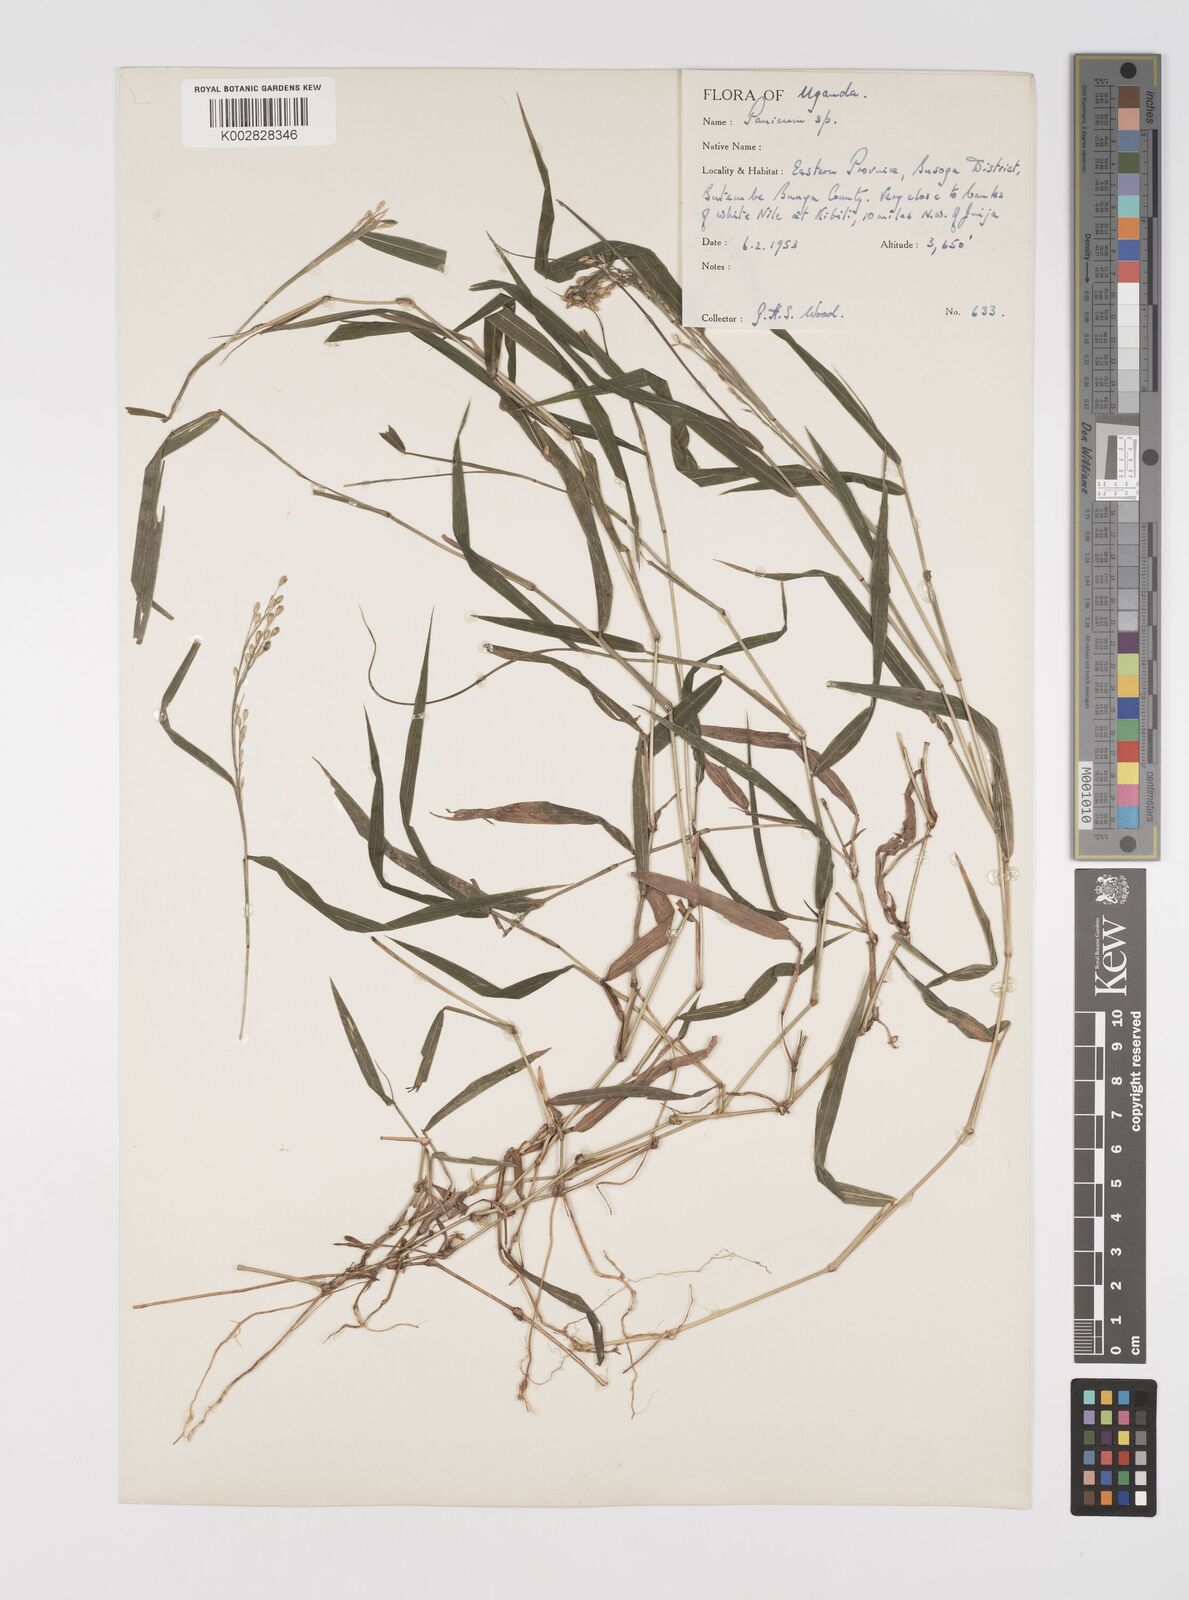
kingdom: Plantae
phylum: Tracheophyta
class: Liliopsida
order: Poales
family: Poaceae
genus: Acroceras
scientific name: Acroceras attenuatum
